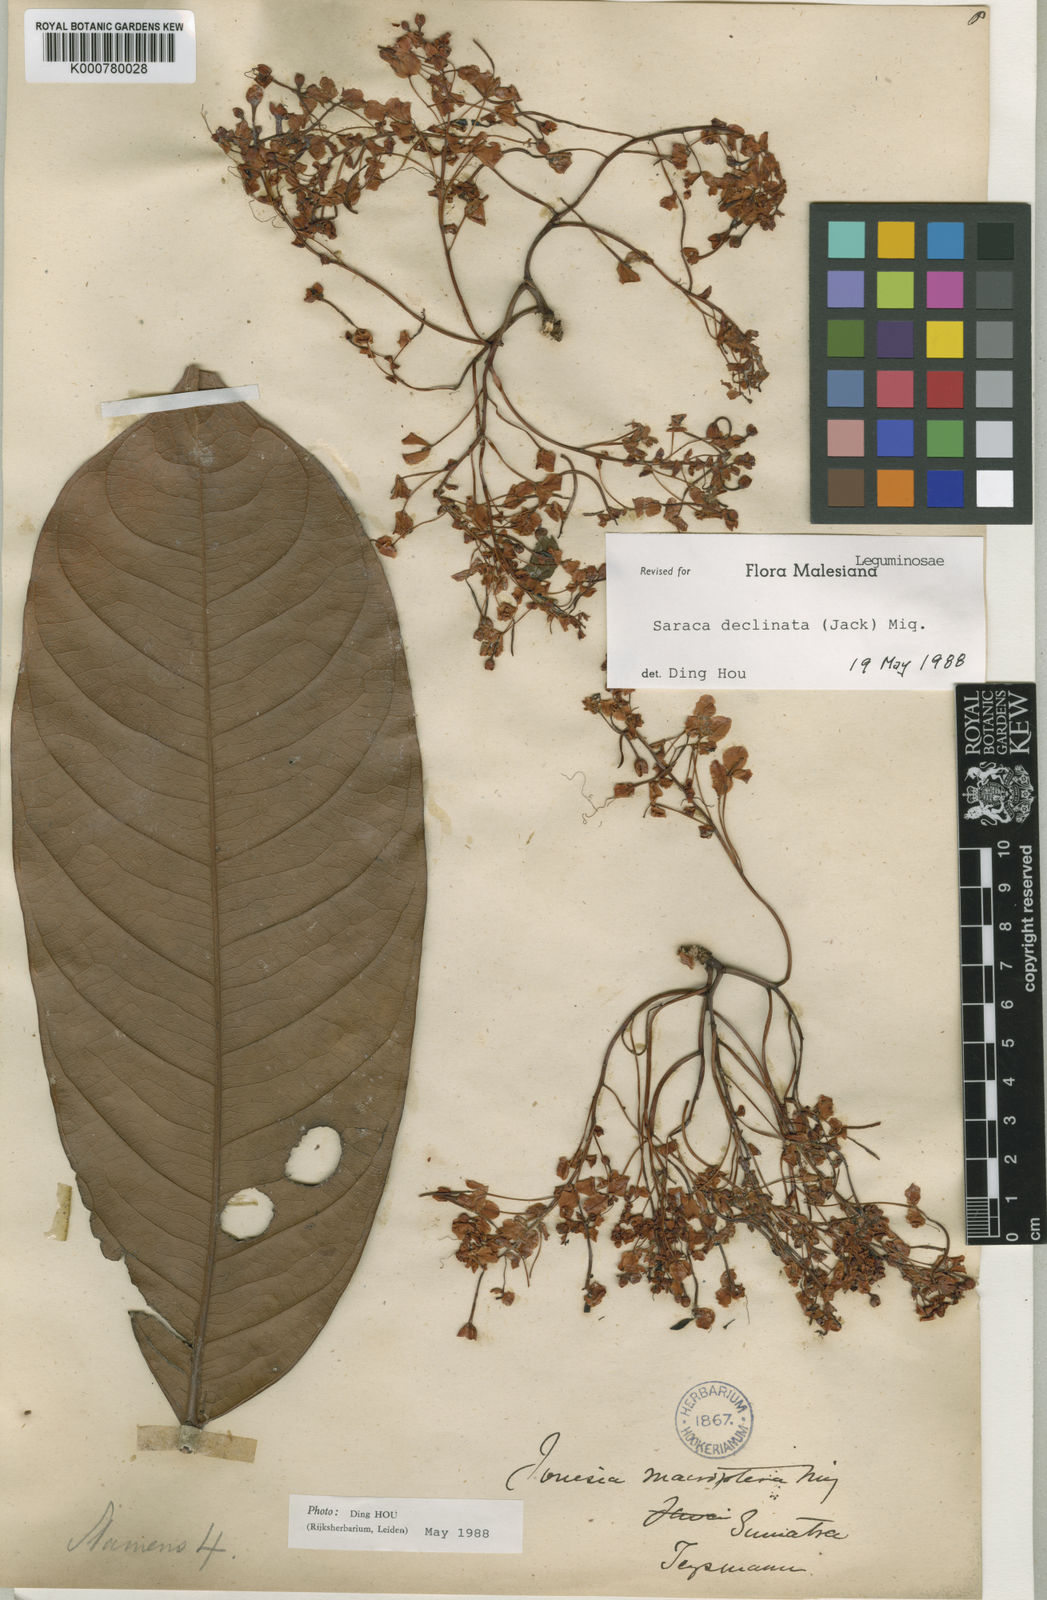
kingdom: Plantae
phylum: Tracheophyta
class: Magnoliopsida
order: Fabales
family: Fabaceae
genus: Saraca
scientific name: Saraca declinata
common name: Red saraca
